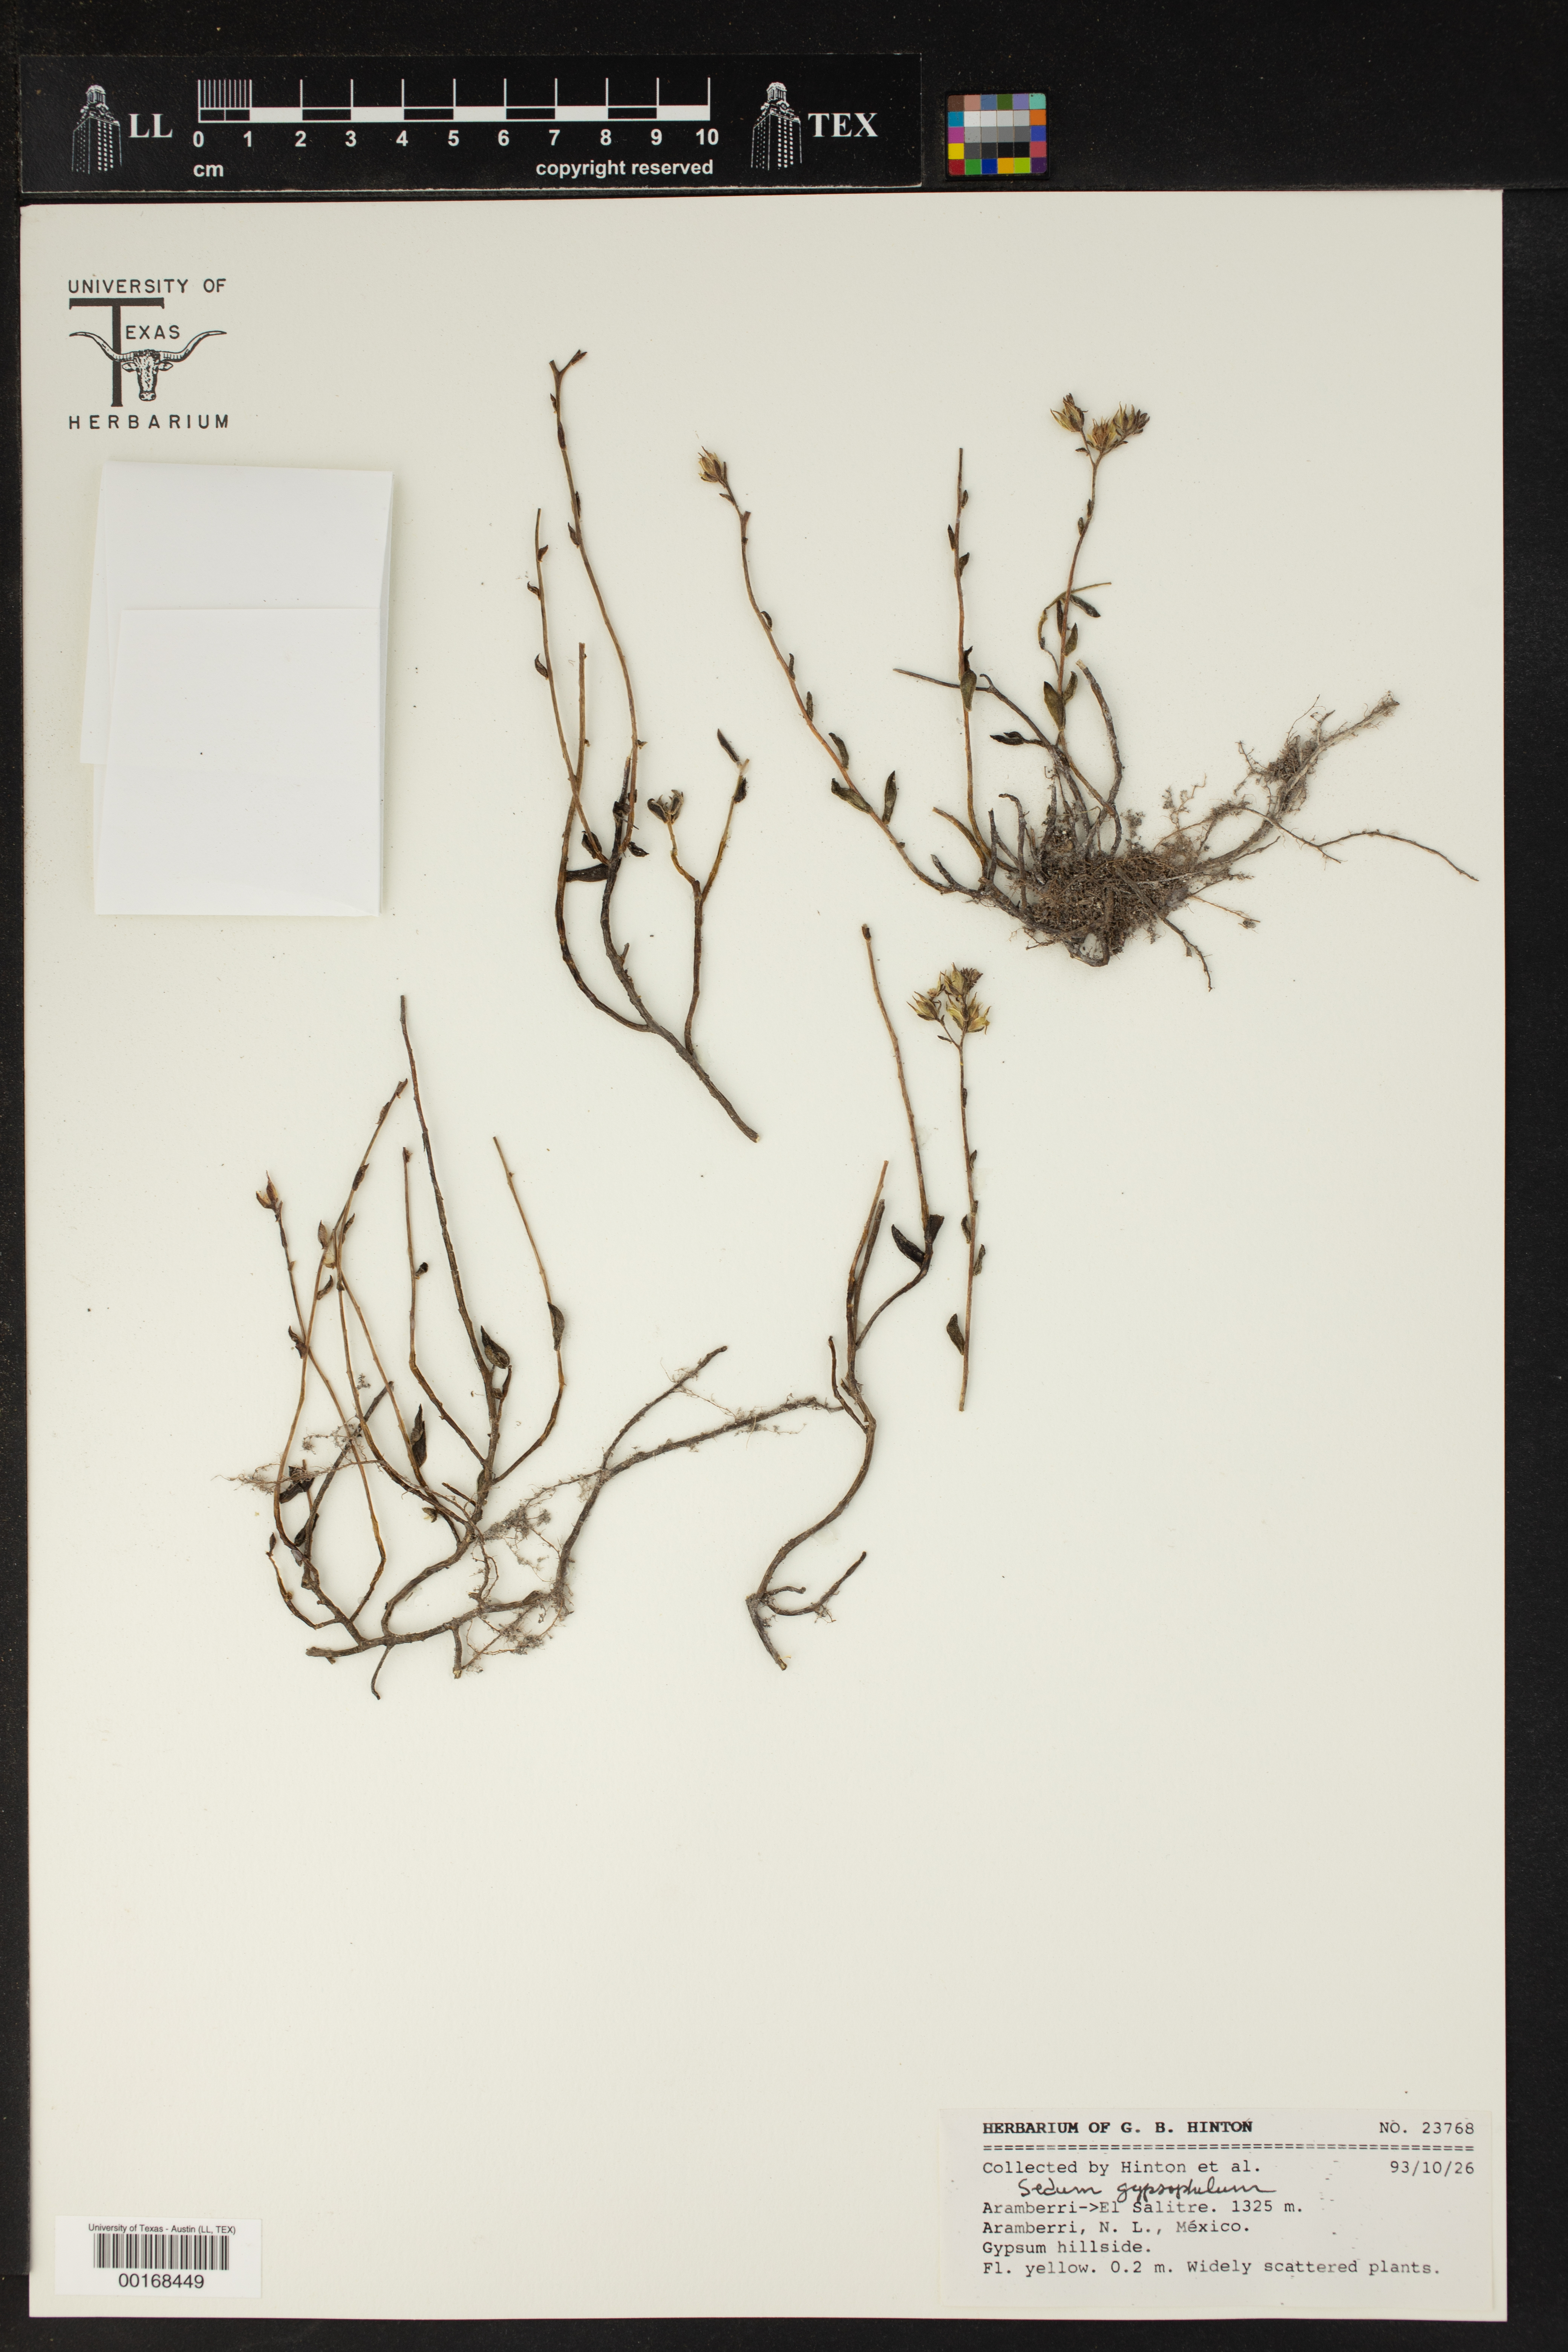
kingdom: Plantae
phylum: Tracheophyta
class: Magnoliopsida
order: Saxifragales
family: Crassulaceae
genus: Sedum
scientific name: Sedum gypsophilum
